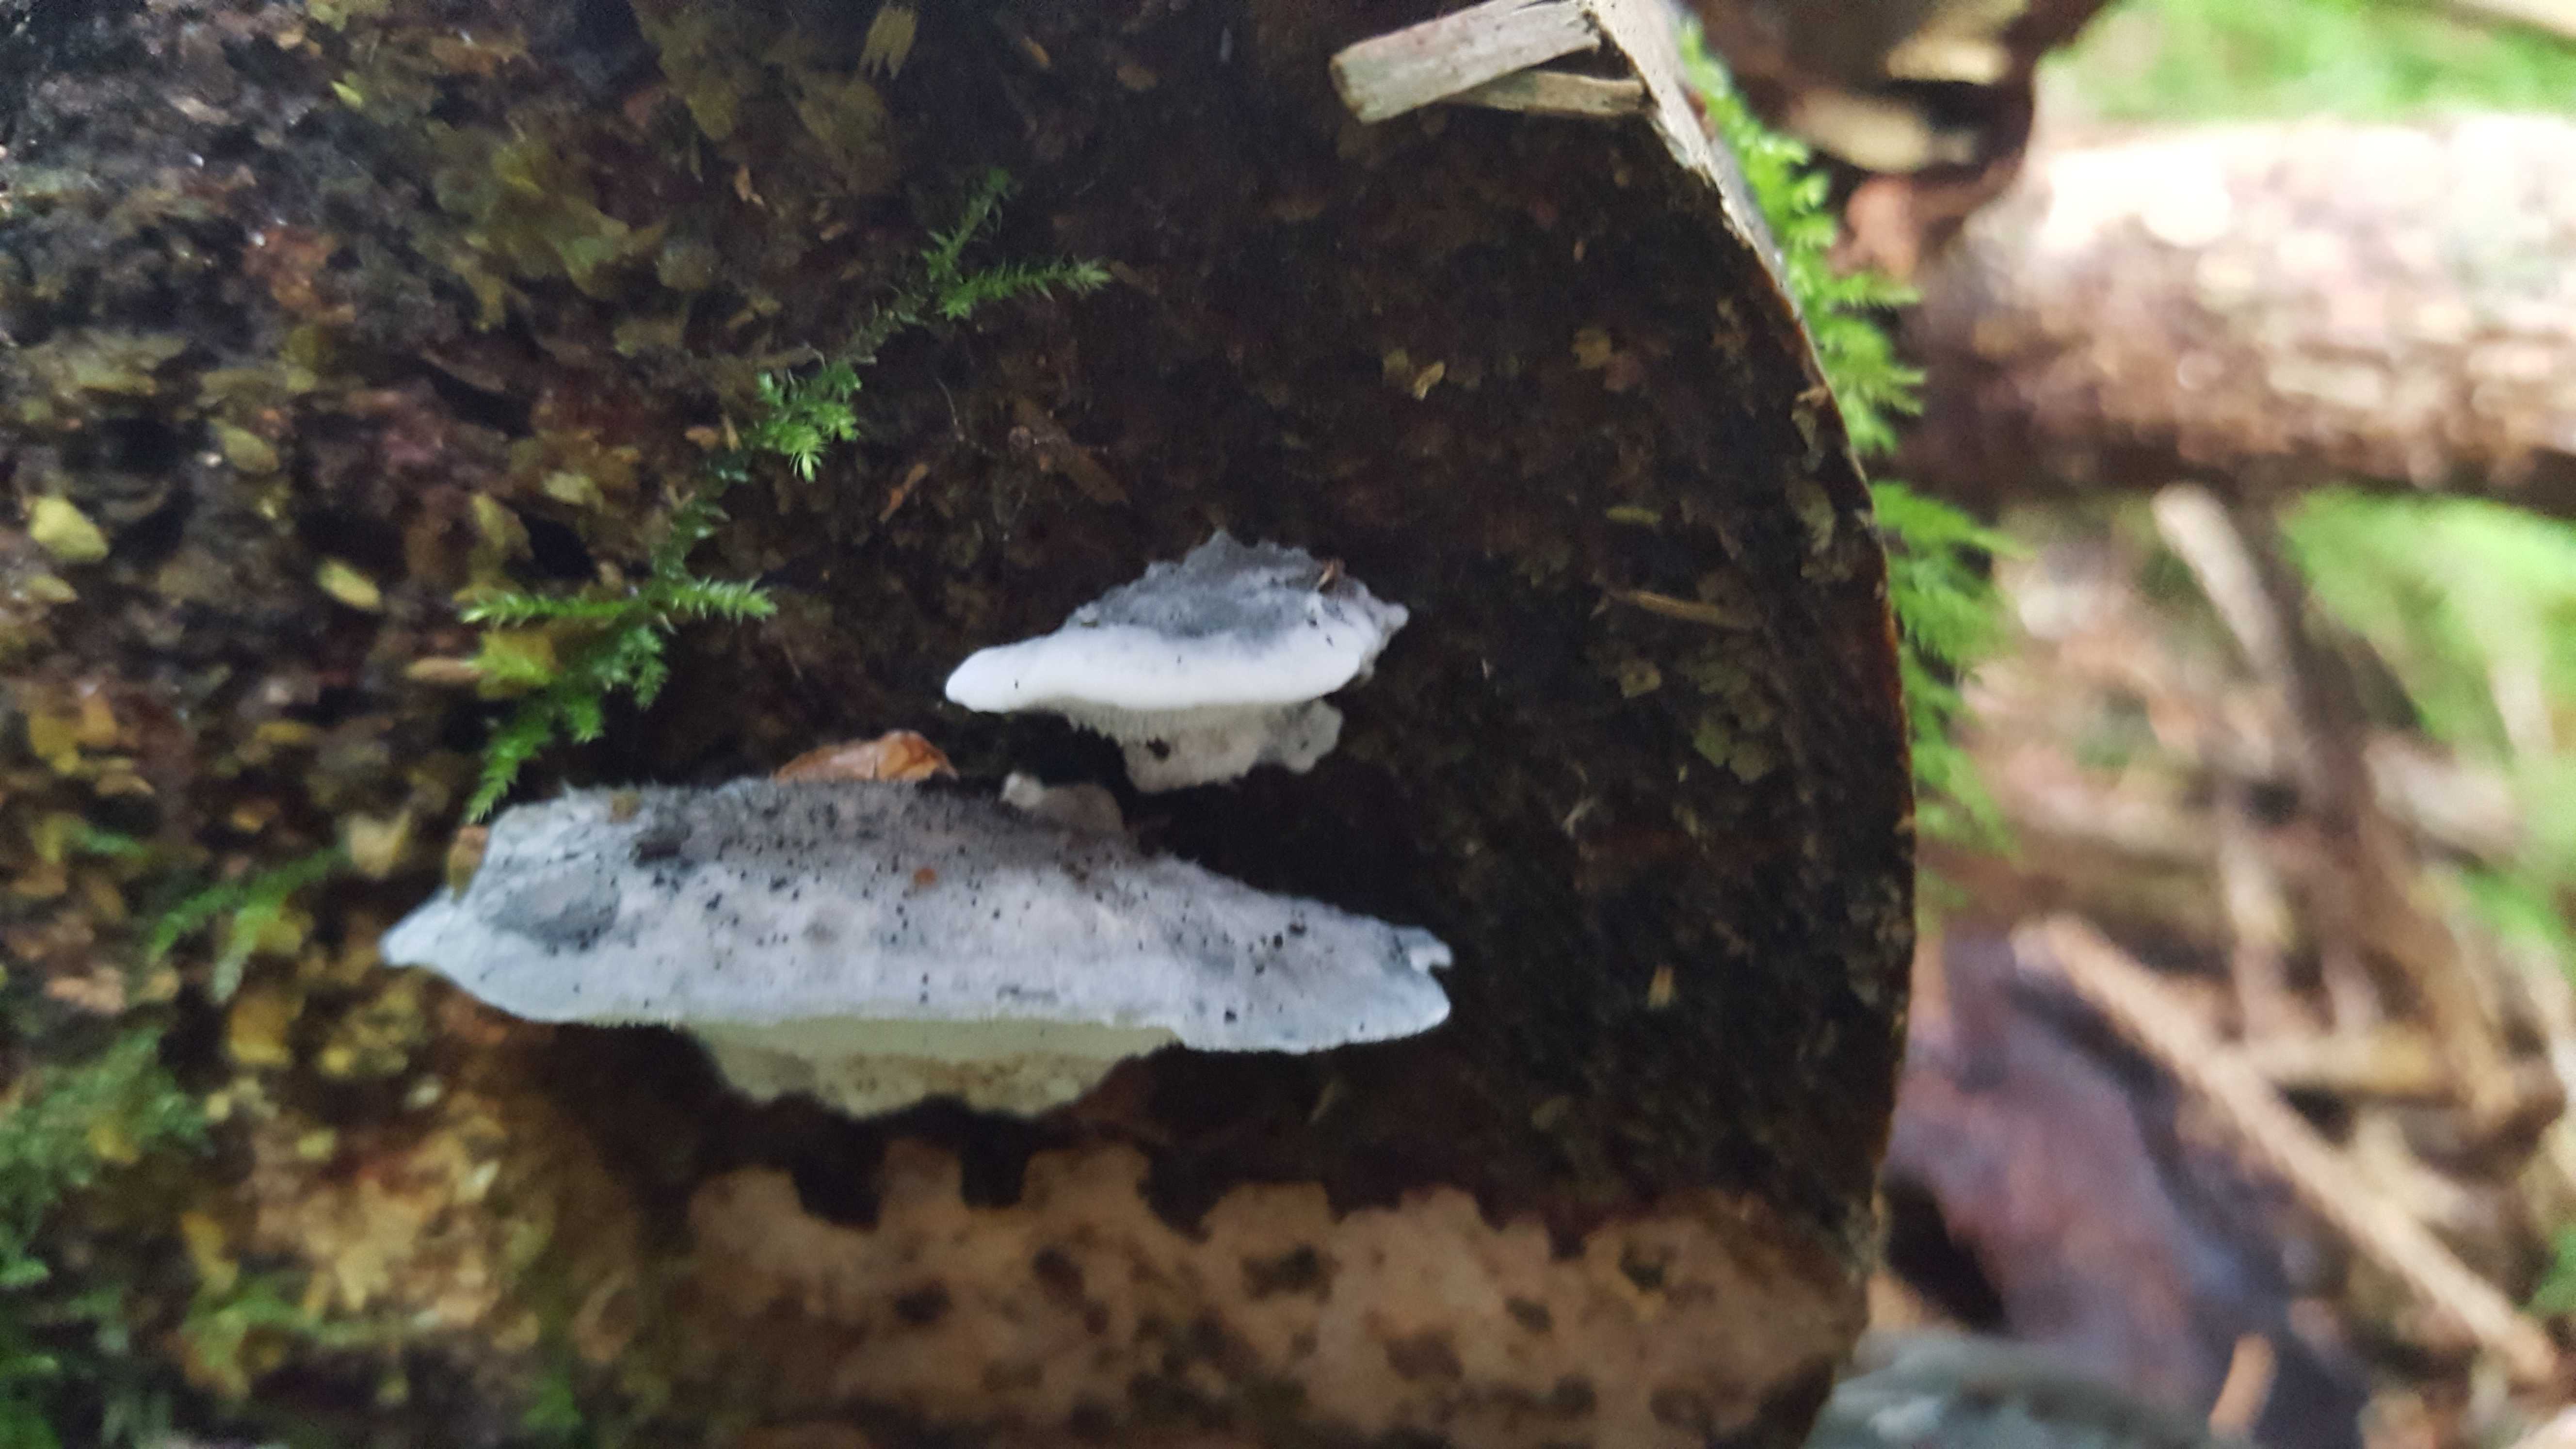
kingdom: Fungi
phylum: Basidiomycota
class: Agaricomycetes
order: Polyporales
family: Polyporaceae
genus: Cyanosporus
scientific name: Cyanosporus caesius
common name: blålig kødporesvamp
